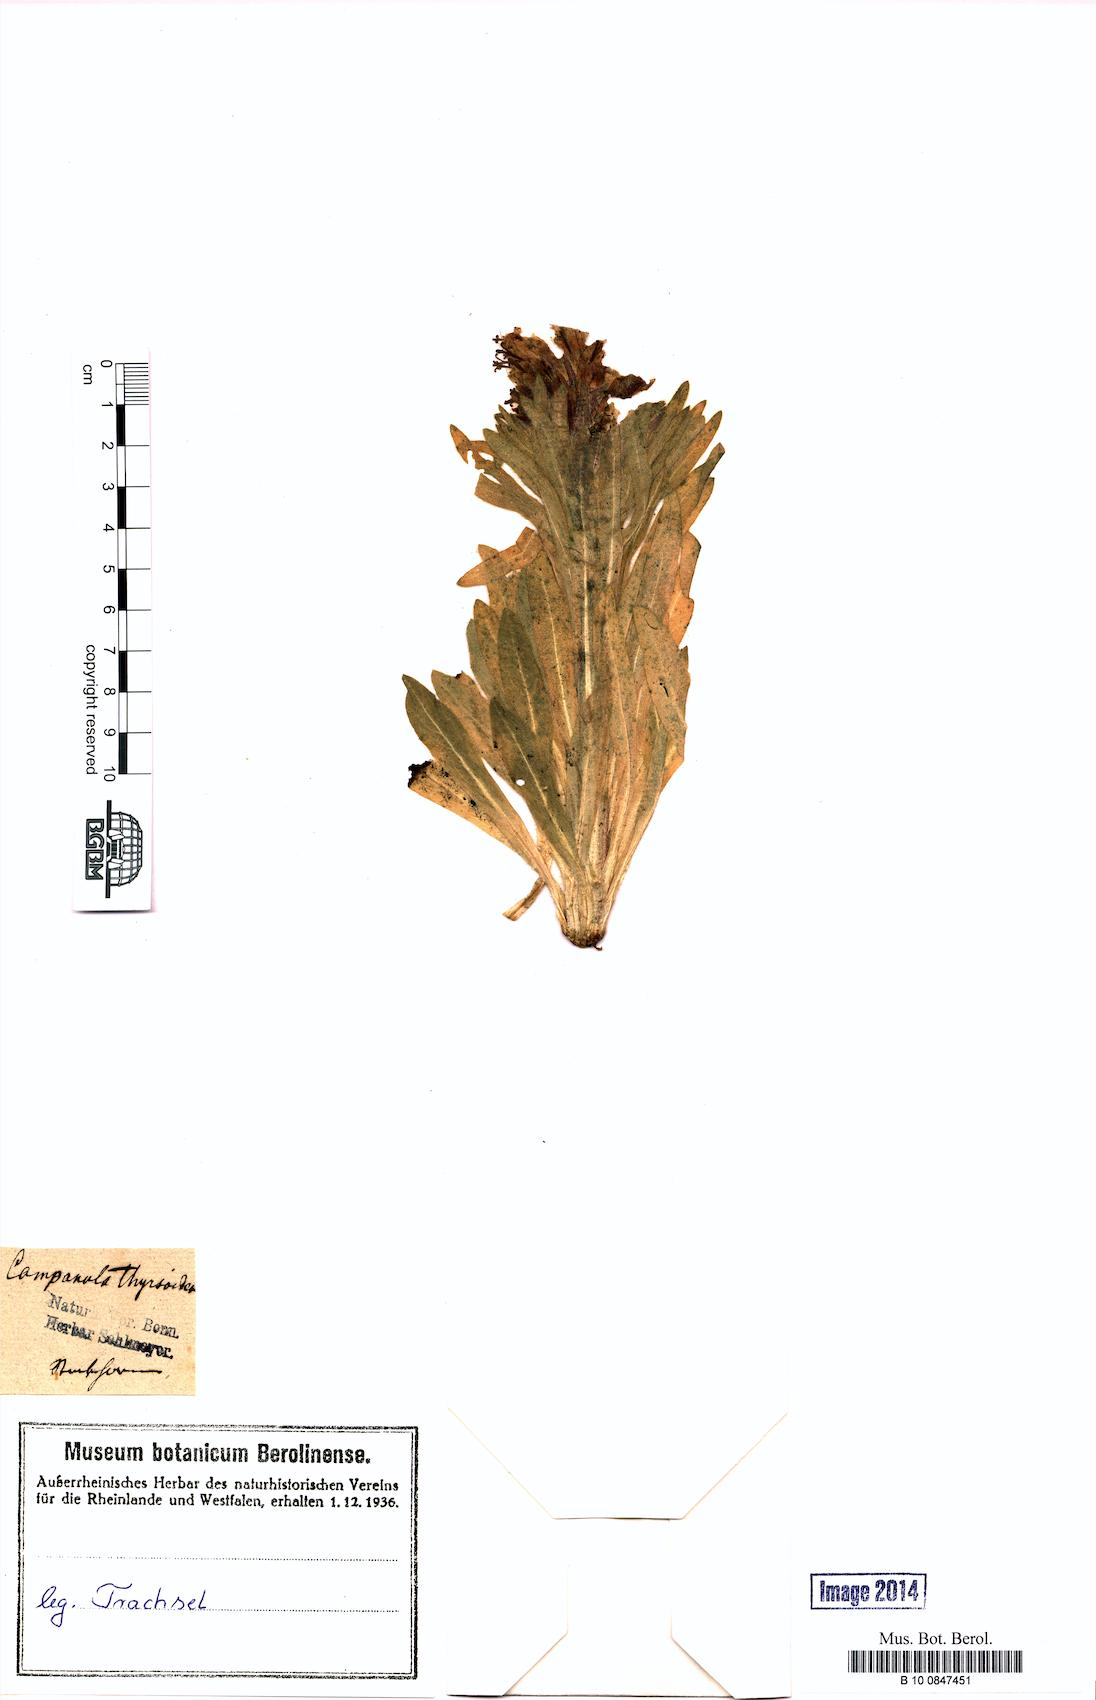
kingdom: Plantae
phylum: Tracheophyta
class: Magnoliopsida
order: Asterales
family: Campanulaceae
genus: Campanula
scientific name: Campanula thyrsoides
